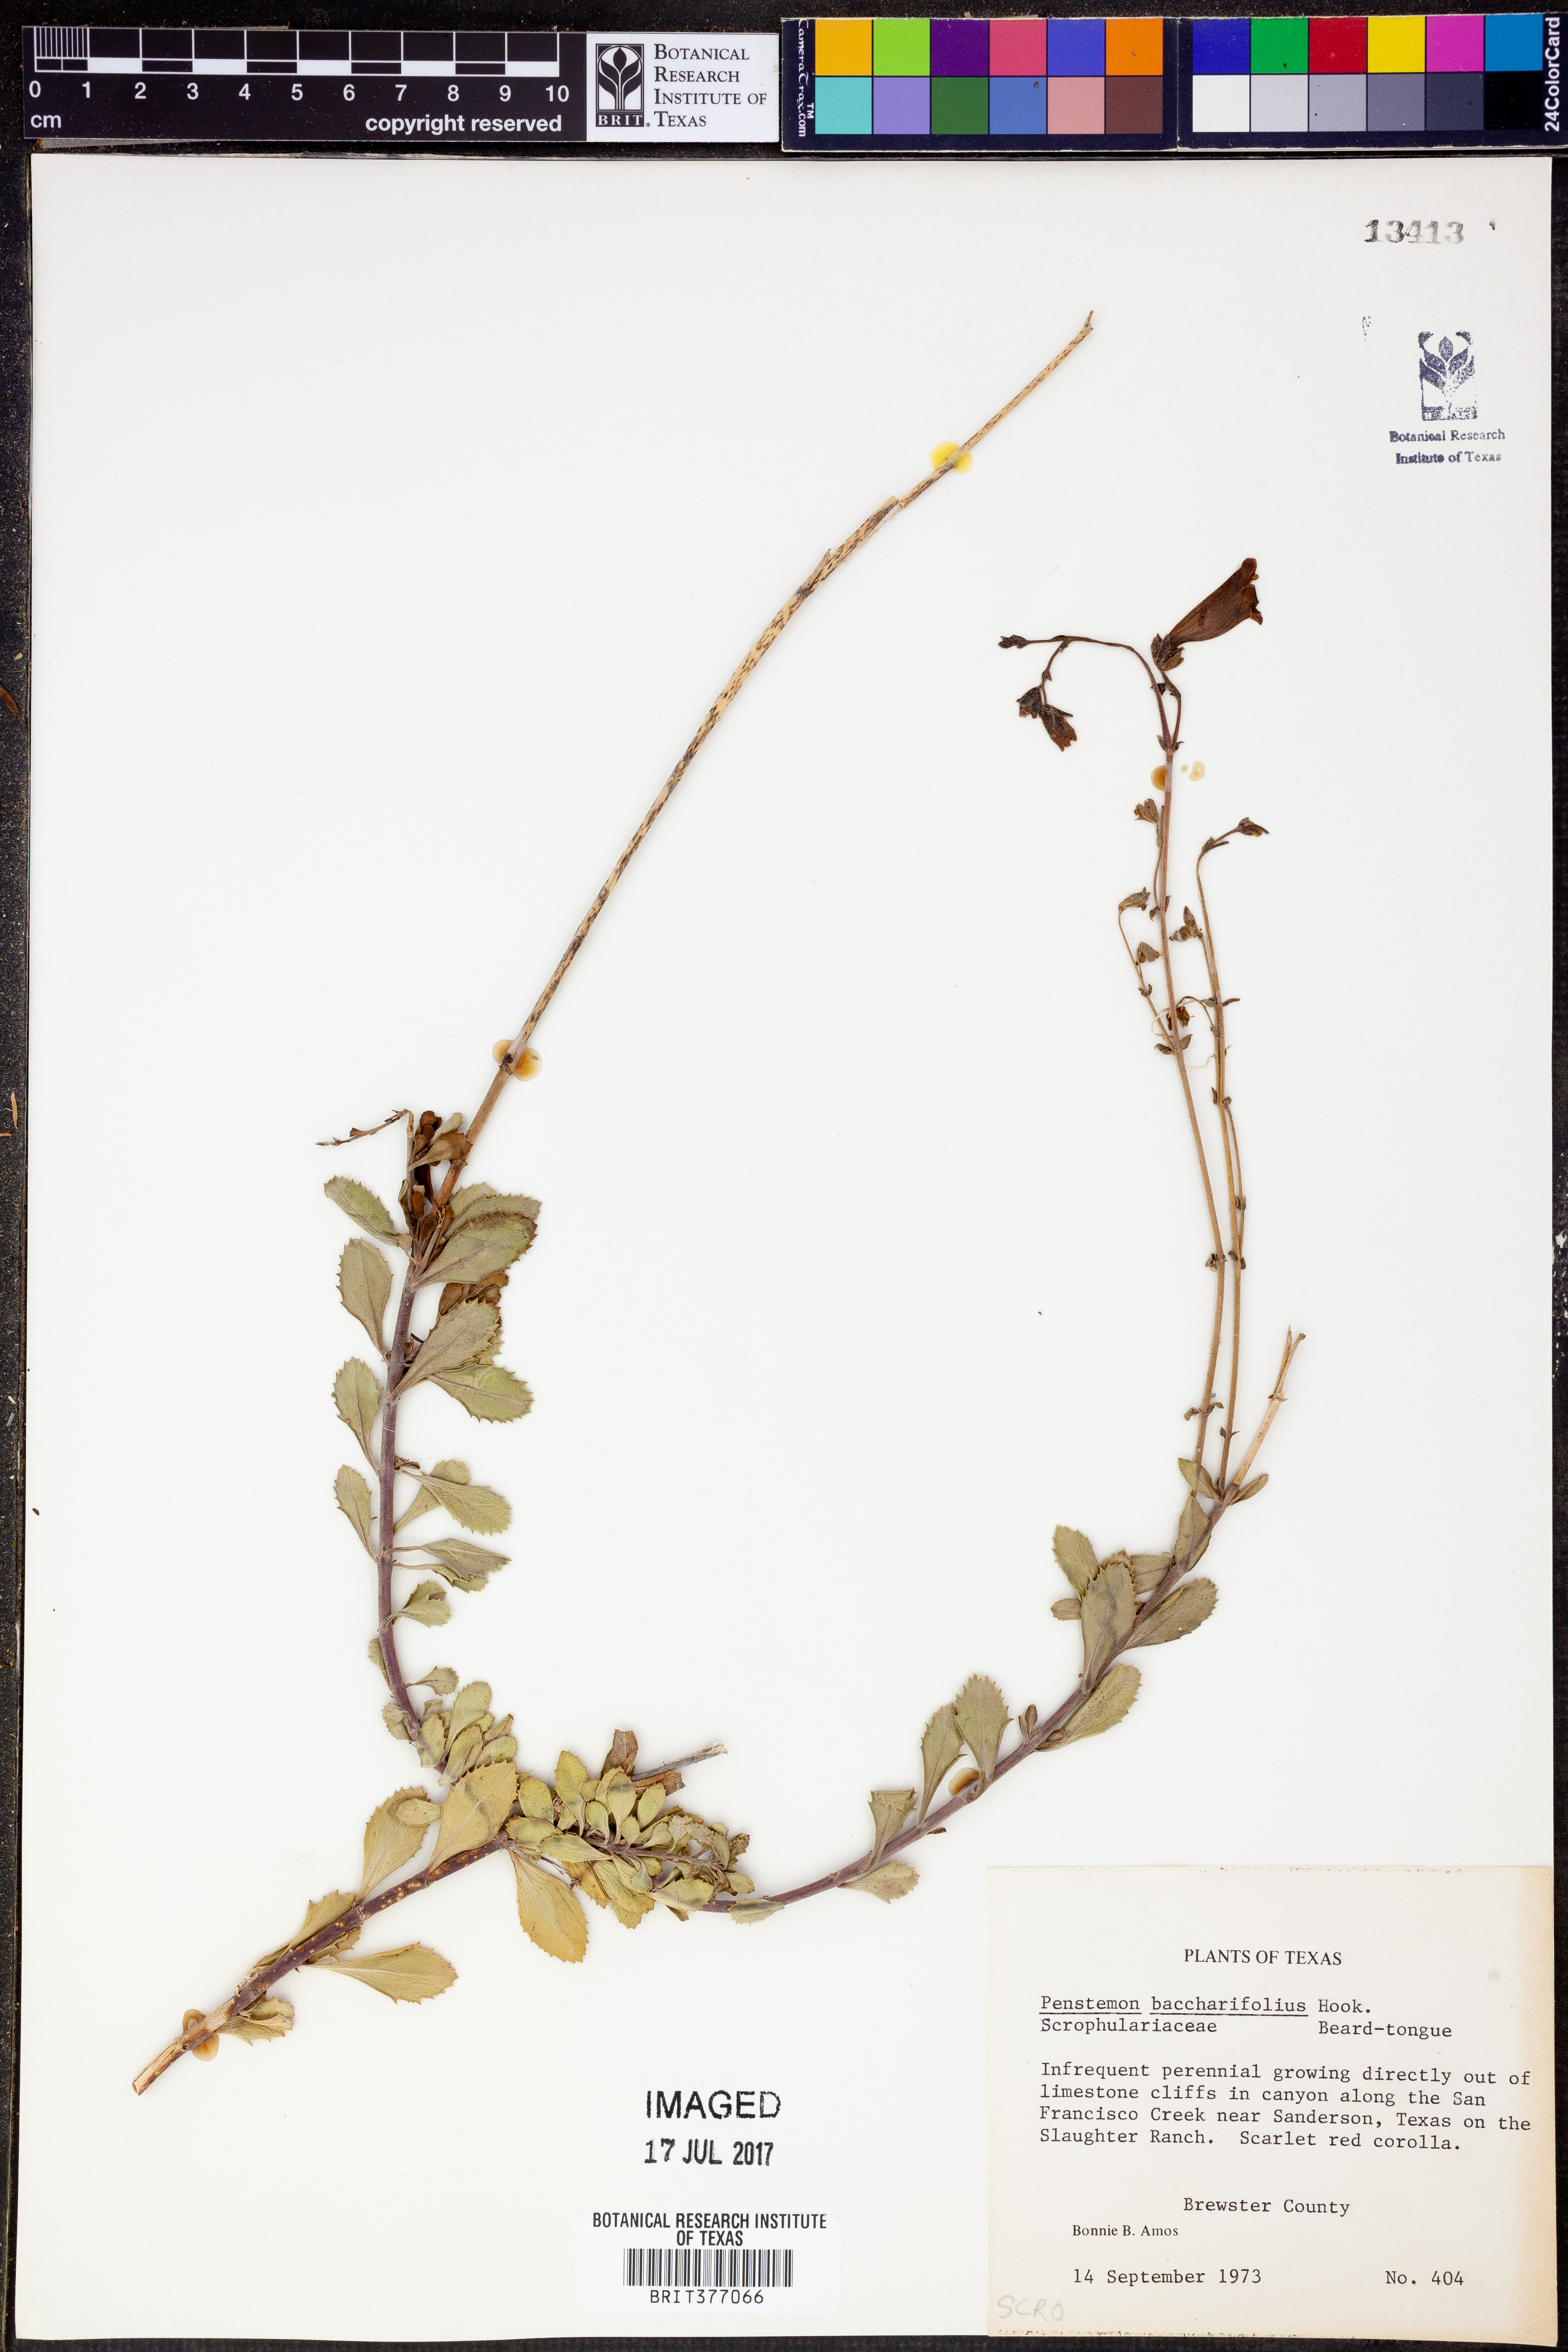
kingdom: Plantae
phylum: Tracheophyta
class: Magnoliopsida
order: Lamiales
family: Plantaginaceae
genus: Penstemon
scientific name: Penstemon baccharifolius
